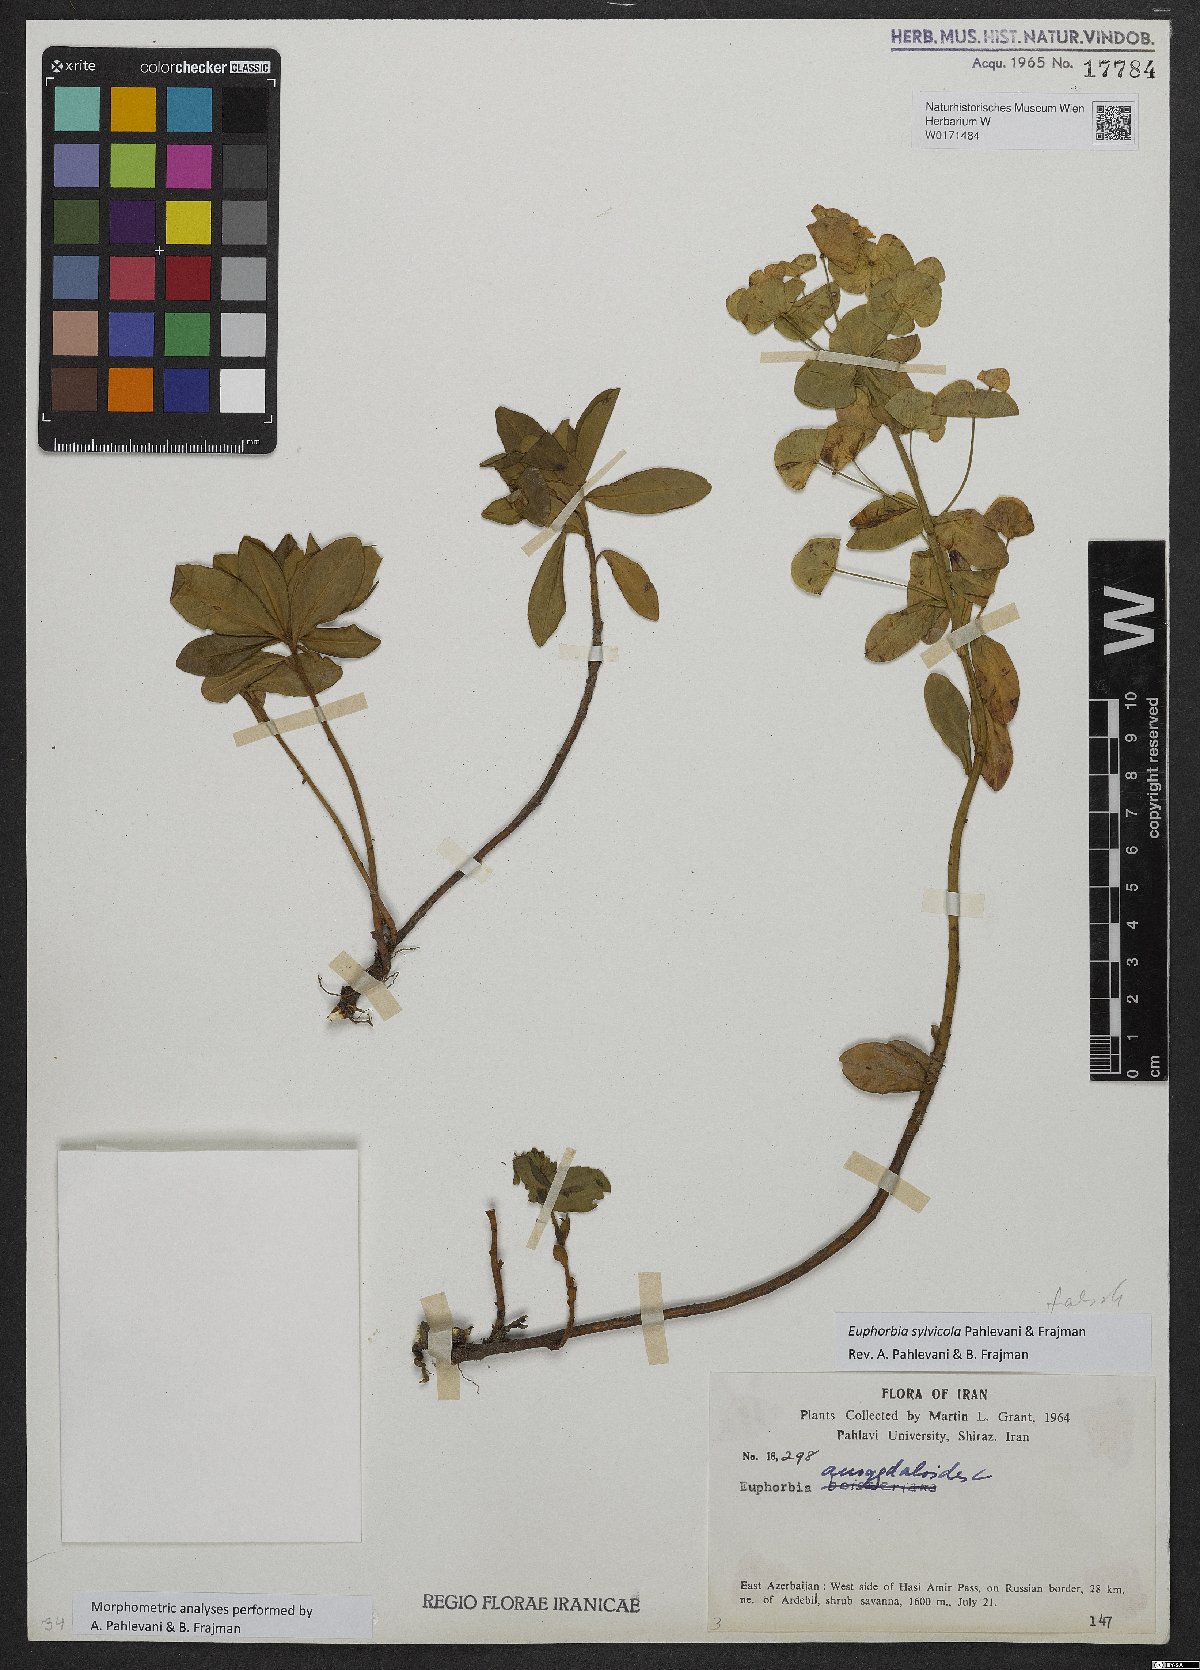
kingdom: Plantae
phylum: Tracheophyta
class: Magnoliopsida
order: Malpighiales
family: Euphorbiaceae
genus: Euphorbia
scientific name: Euphorbia juttae
